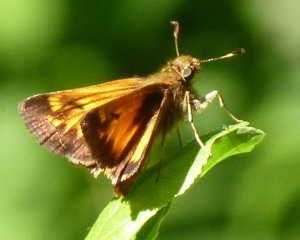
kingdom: Animalia
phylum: Arthropoda
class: Insecta
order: Lepidoptera
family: Hesperiidae
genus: Lon
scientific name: Lon hobomok
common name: Hobomok Skipper
